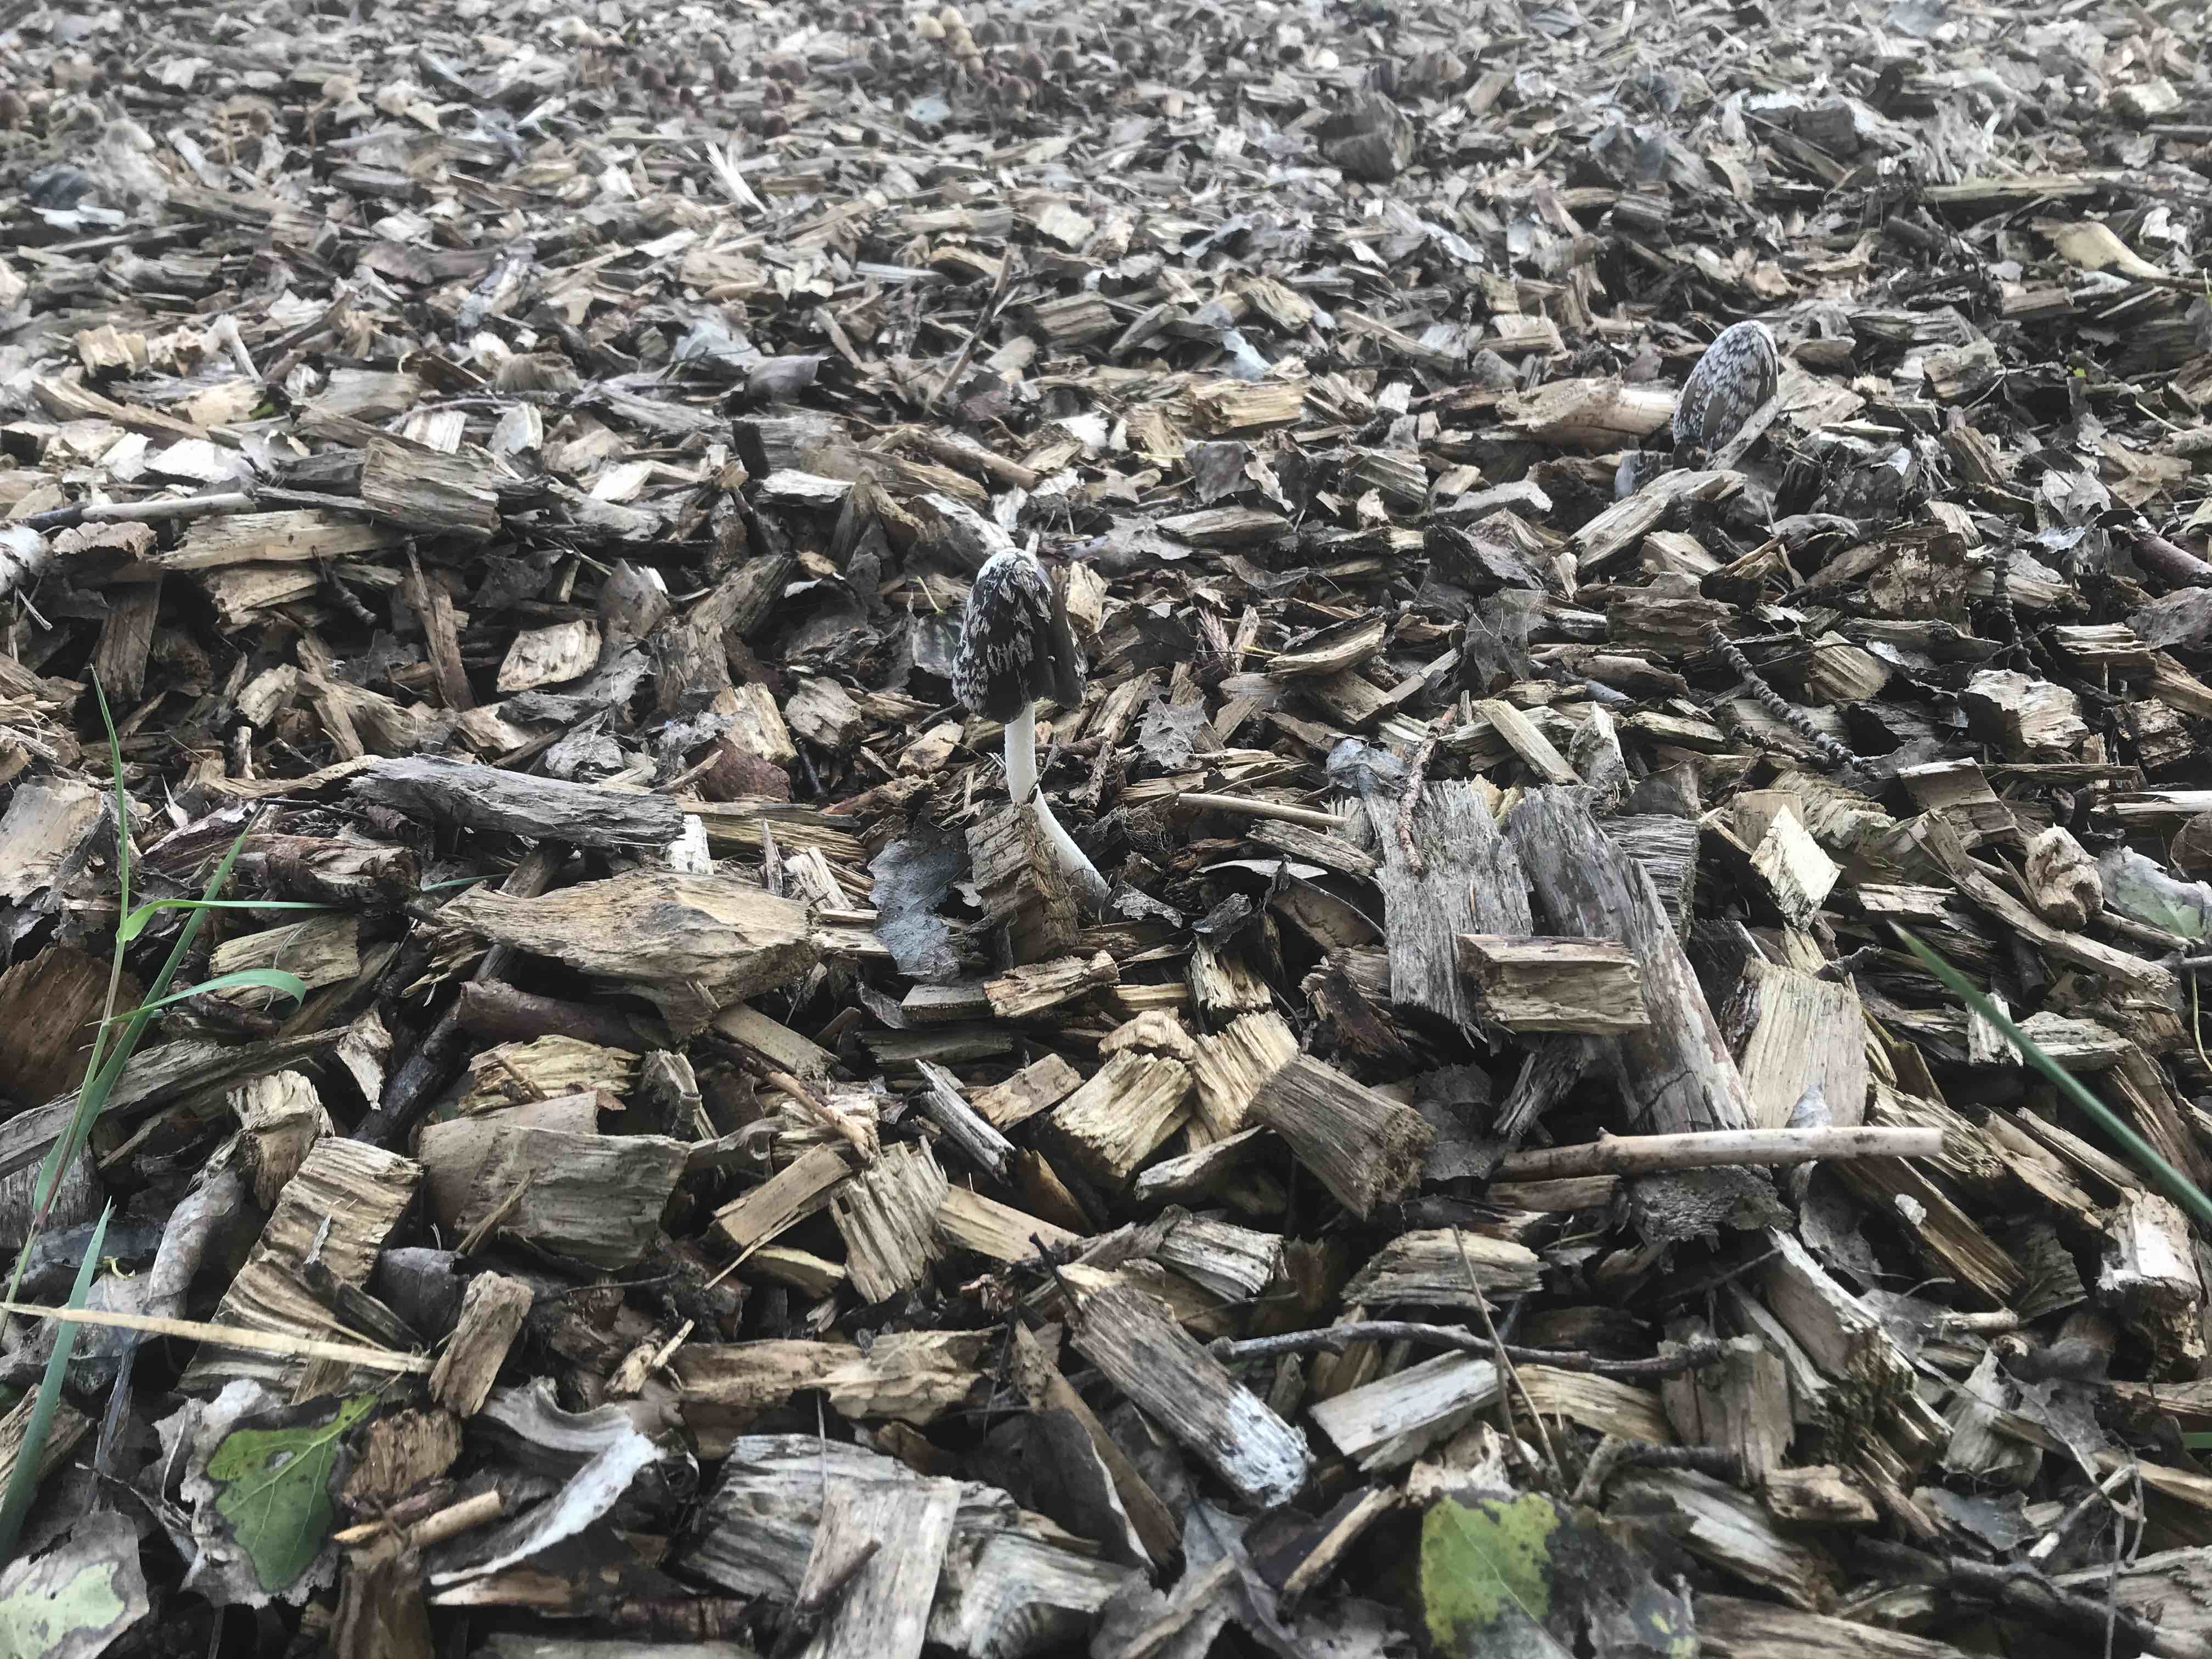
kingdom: Fungi
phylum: Basidiomycota
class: Agaricomycetes
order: Agaricales
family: Psathyrellaceae
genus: Coprinopsis
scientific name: Coprinopsis picacea
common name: skade-blækhat
